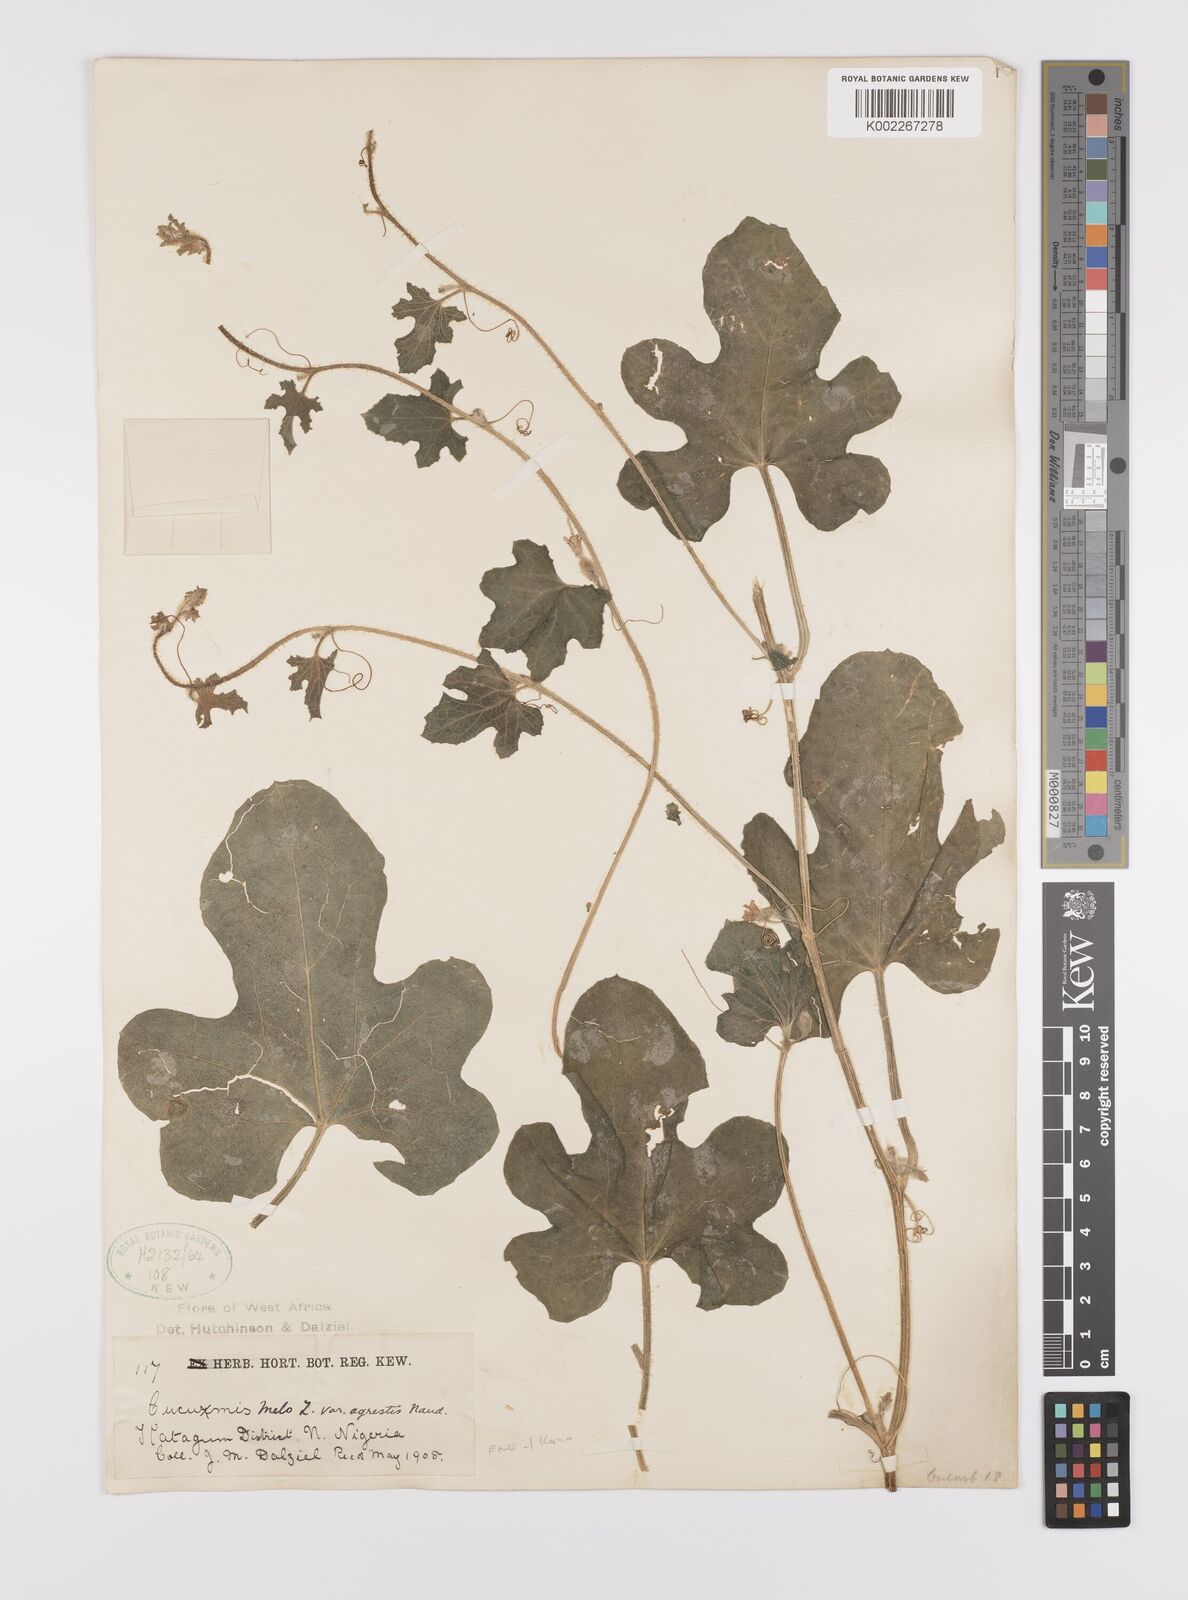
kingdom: Plantae
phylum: Tracheophyta
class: Magnoliopsida
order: Cucurbitales
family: Cucurbitaceae
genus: Cucumis
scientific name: Cucumis melo
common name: Melon
